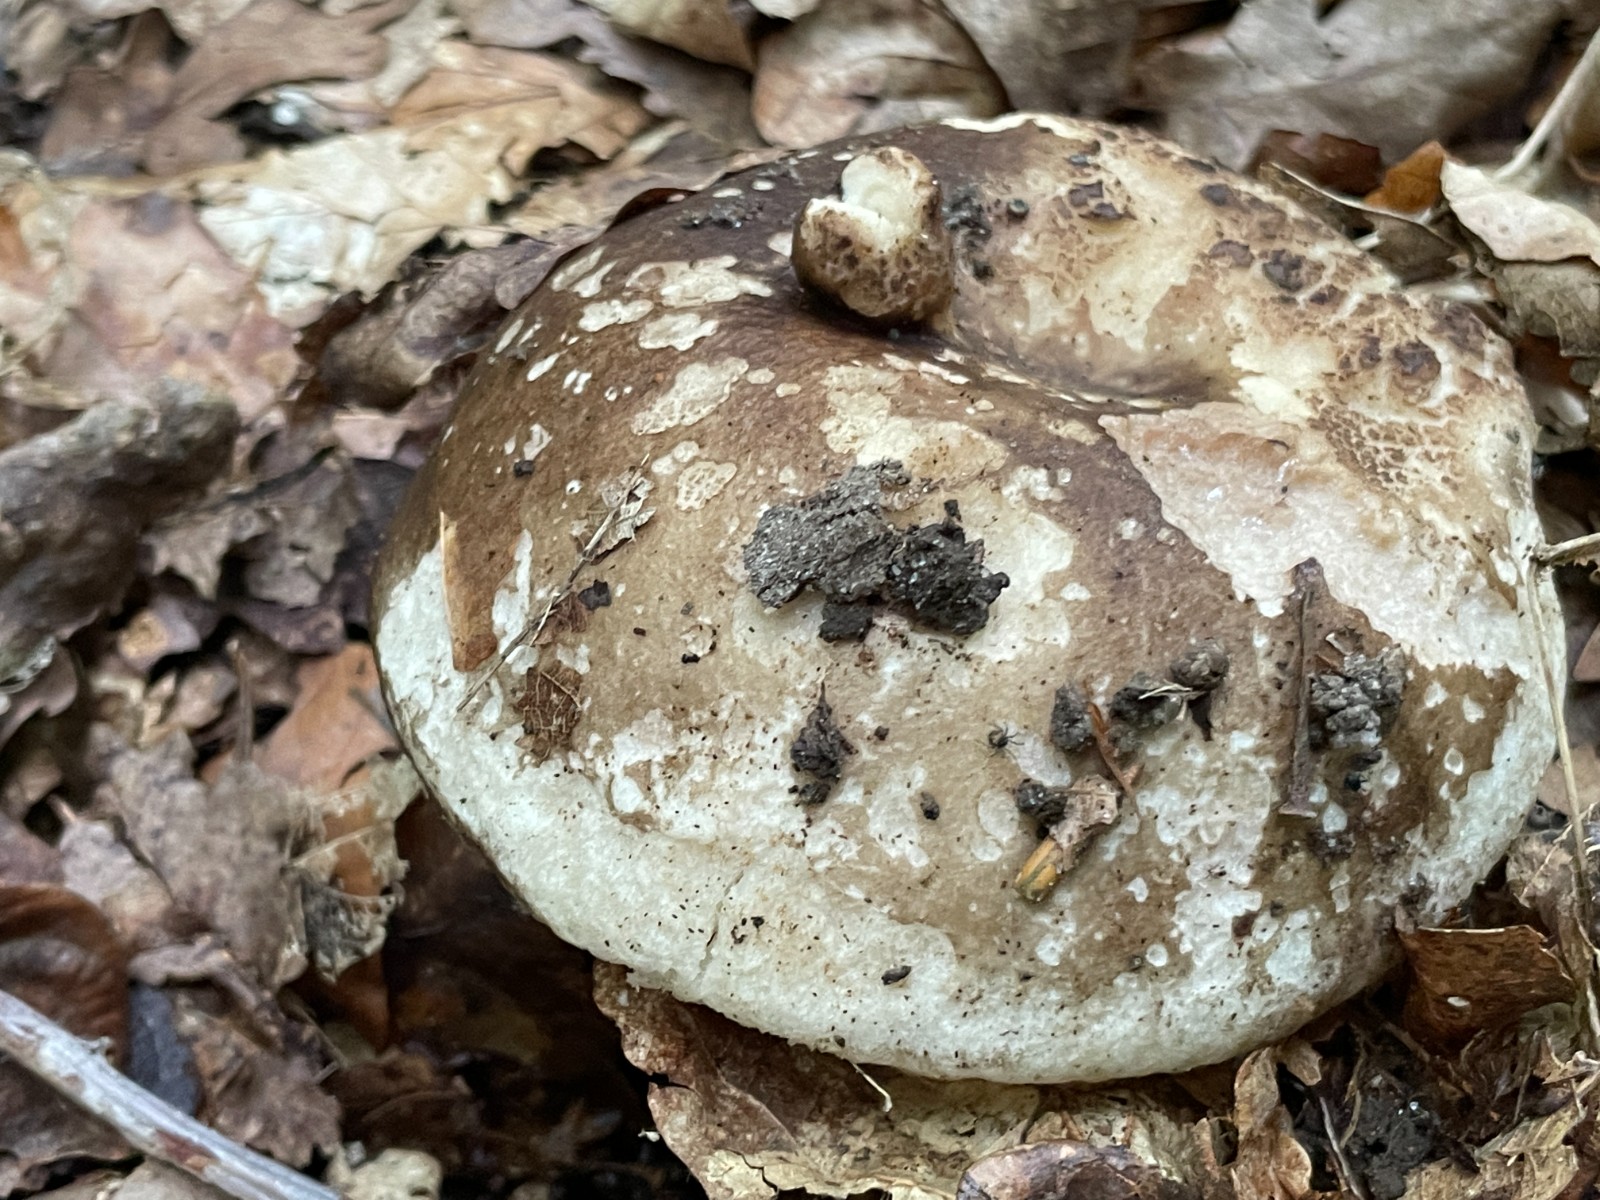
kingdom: Fungi
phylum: Basidiomycota
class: Agaricomycetes
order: Russulales
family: Russulaceae
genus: Russula
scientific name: Russula adusta
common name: sværtende skørhat
